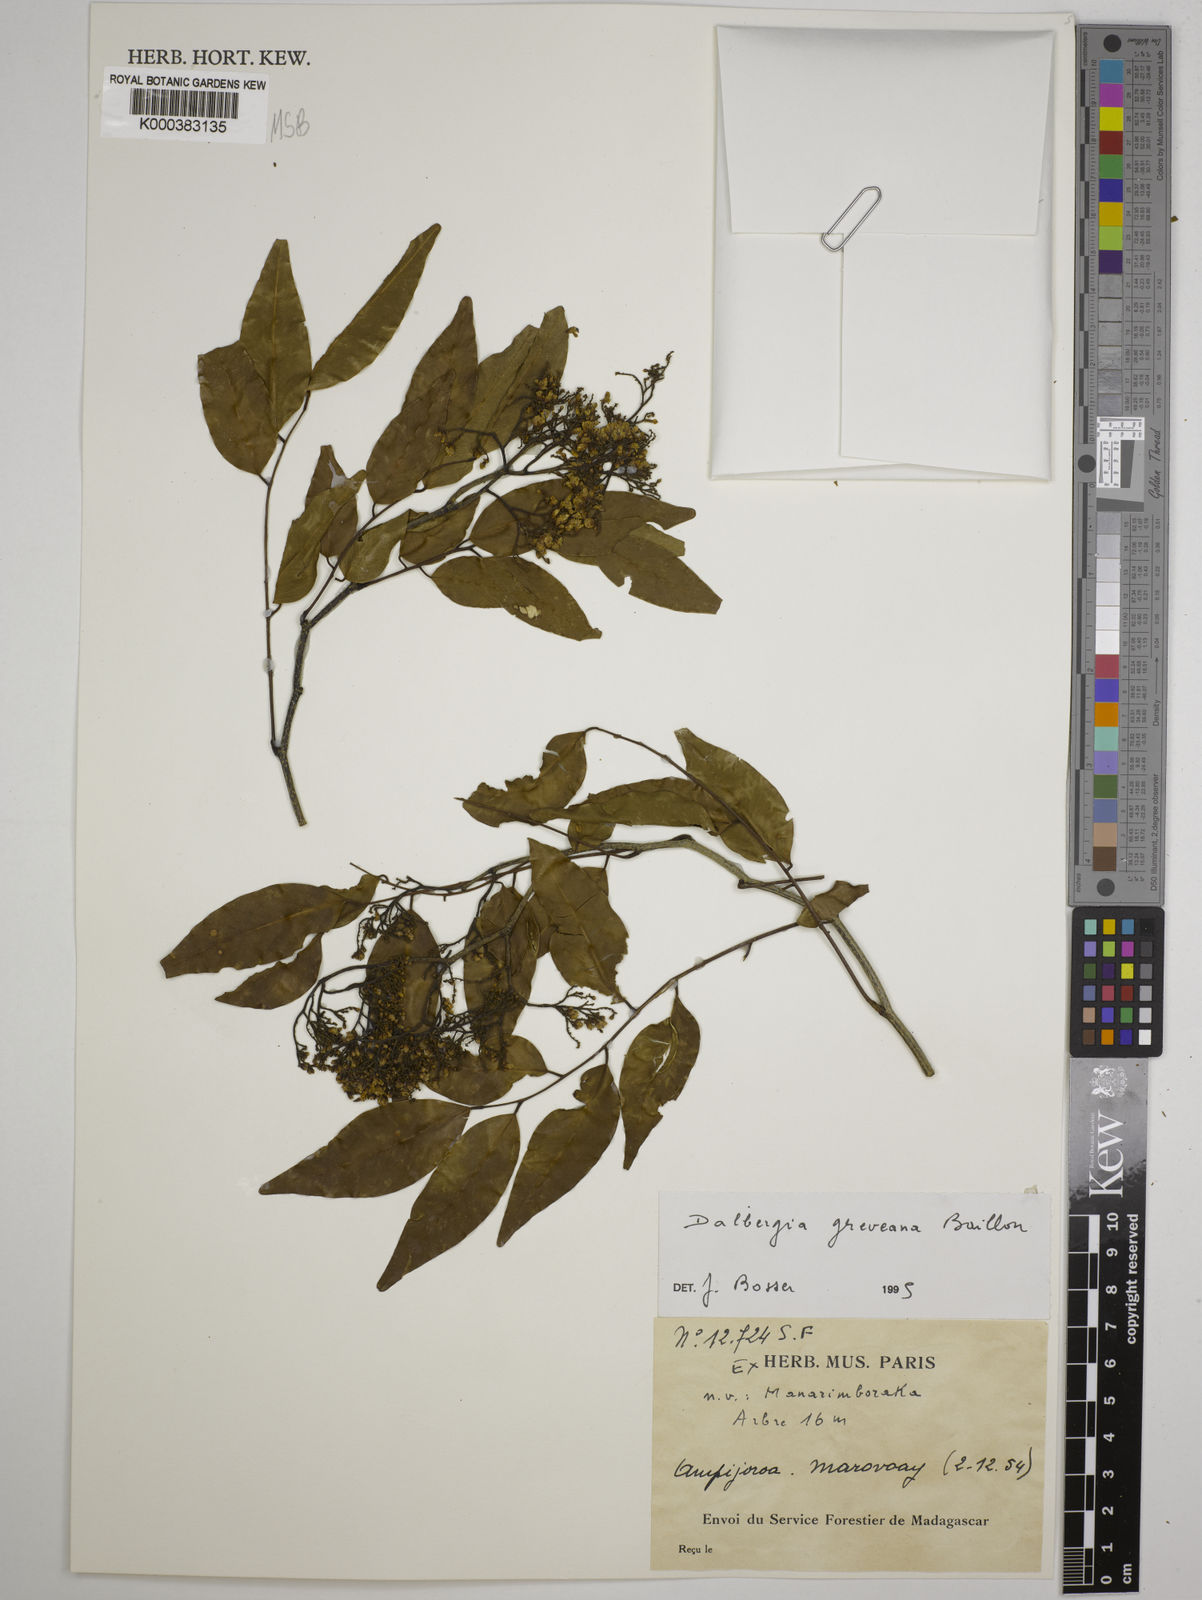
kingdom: Plantae
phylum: Tracheophyta
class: Magnoliopsida
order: Fabales
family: Fabaceae
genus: Dalbergia
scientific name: Dalbergia greveana
